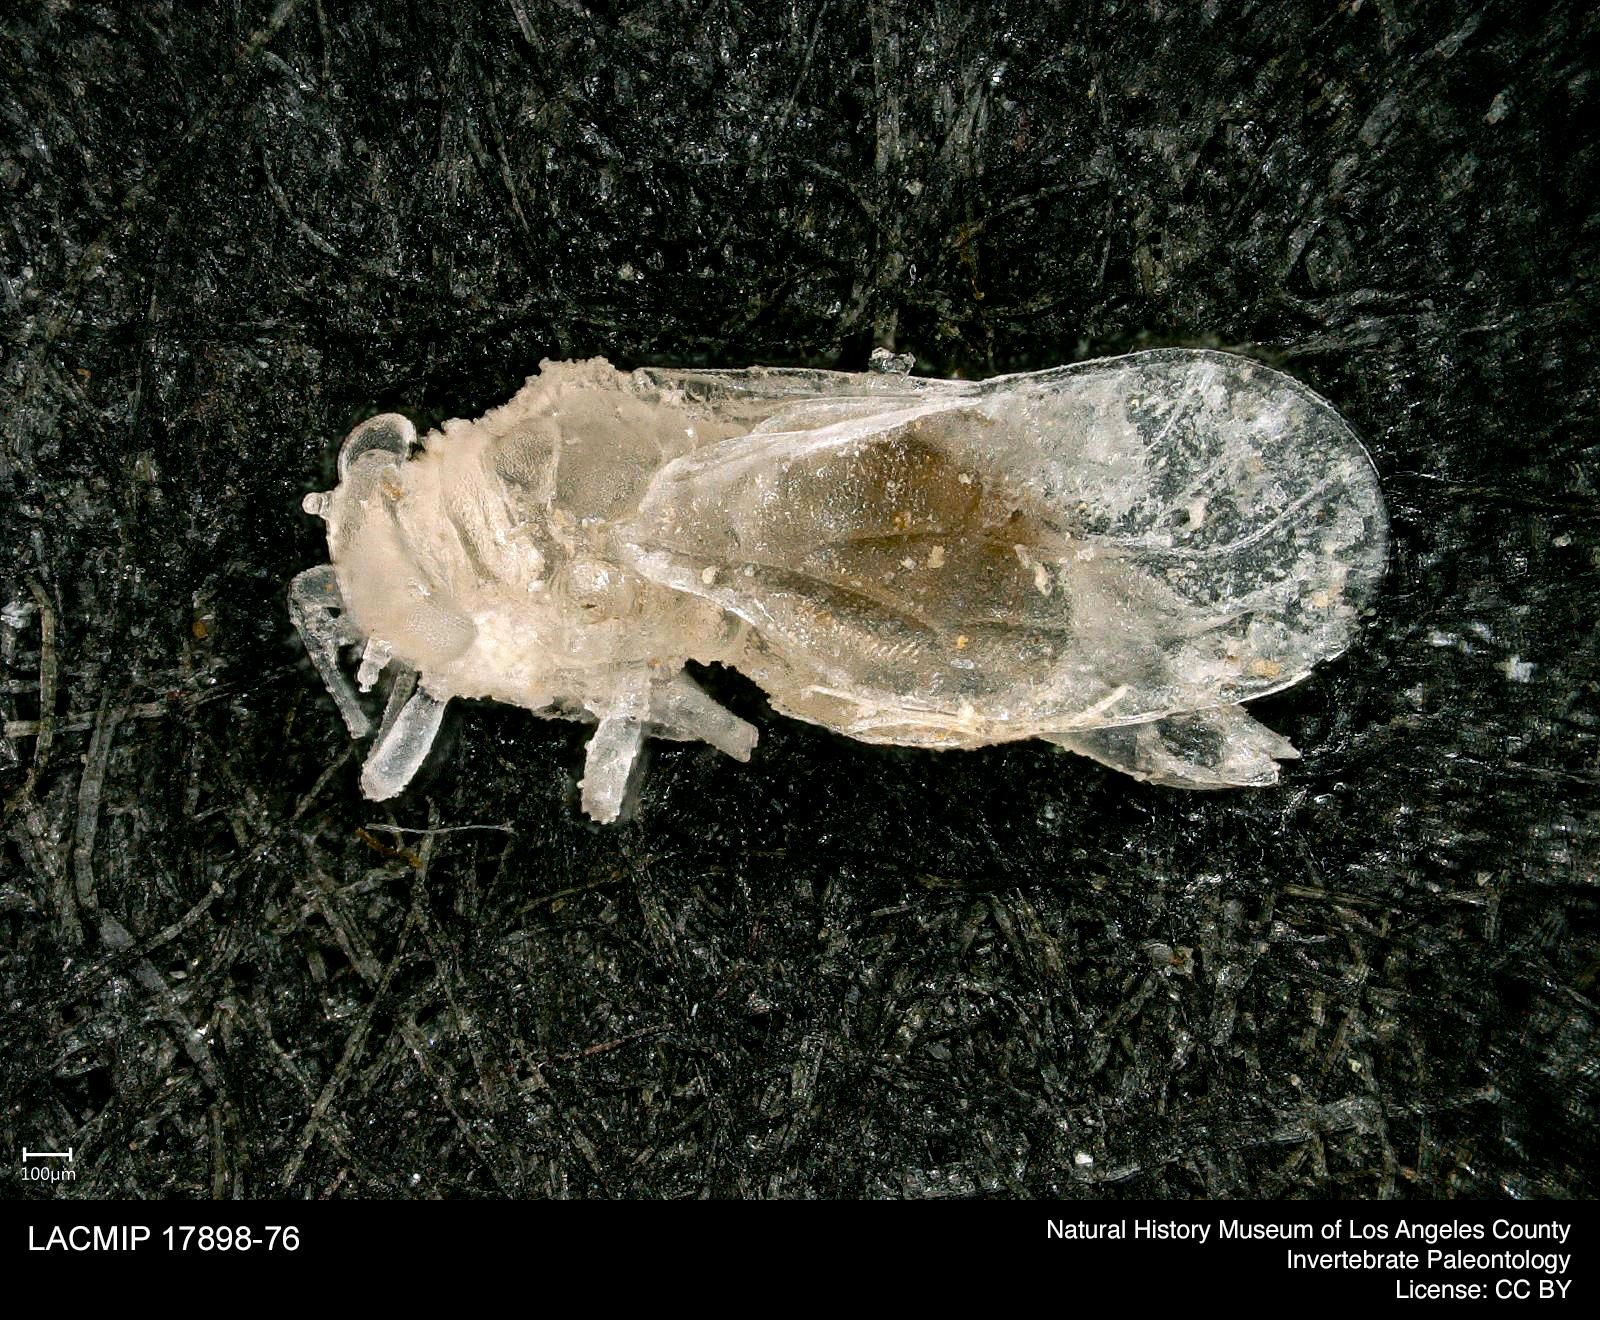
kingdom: Animalia
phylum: Arthropoda
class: Insecta
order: Hemiptera
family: Psyllidae
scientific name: Psyllidae
